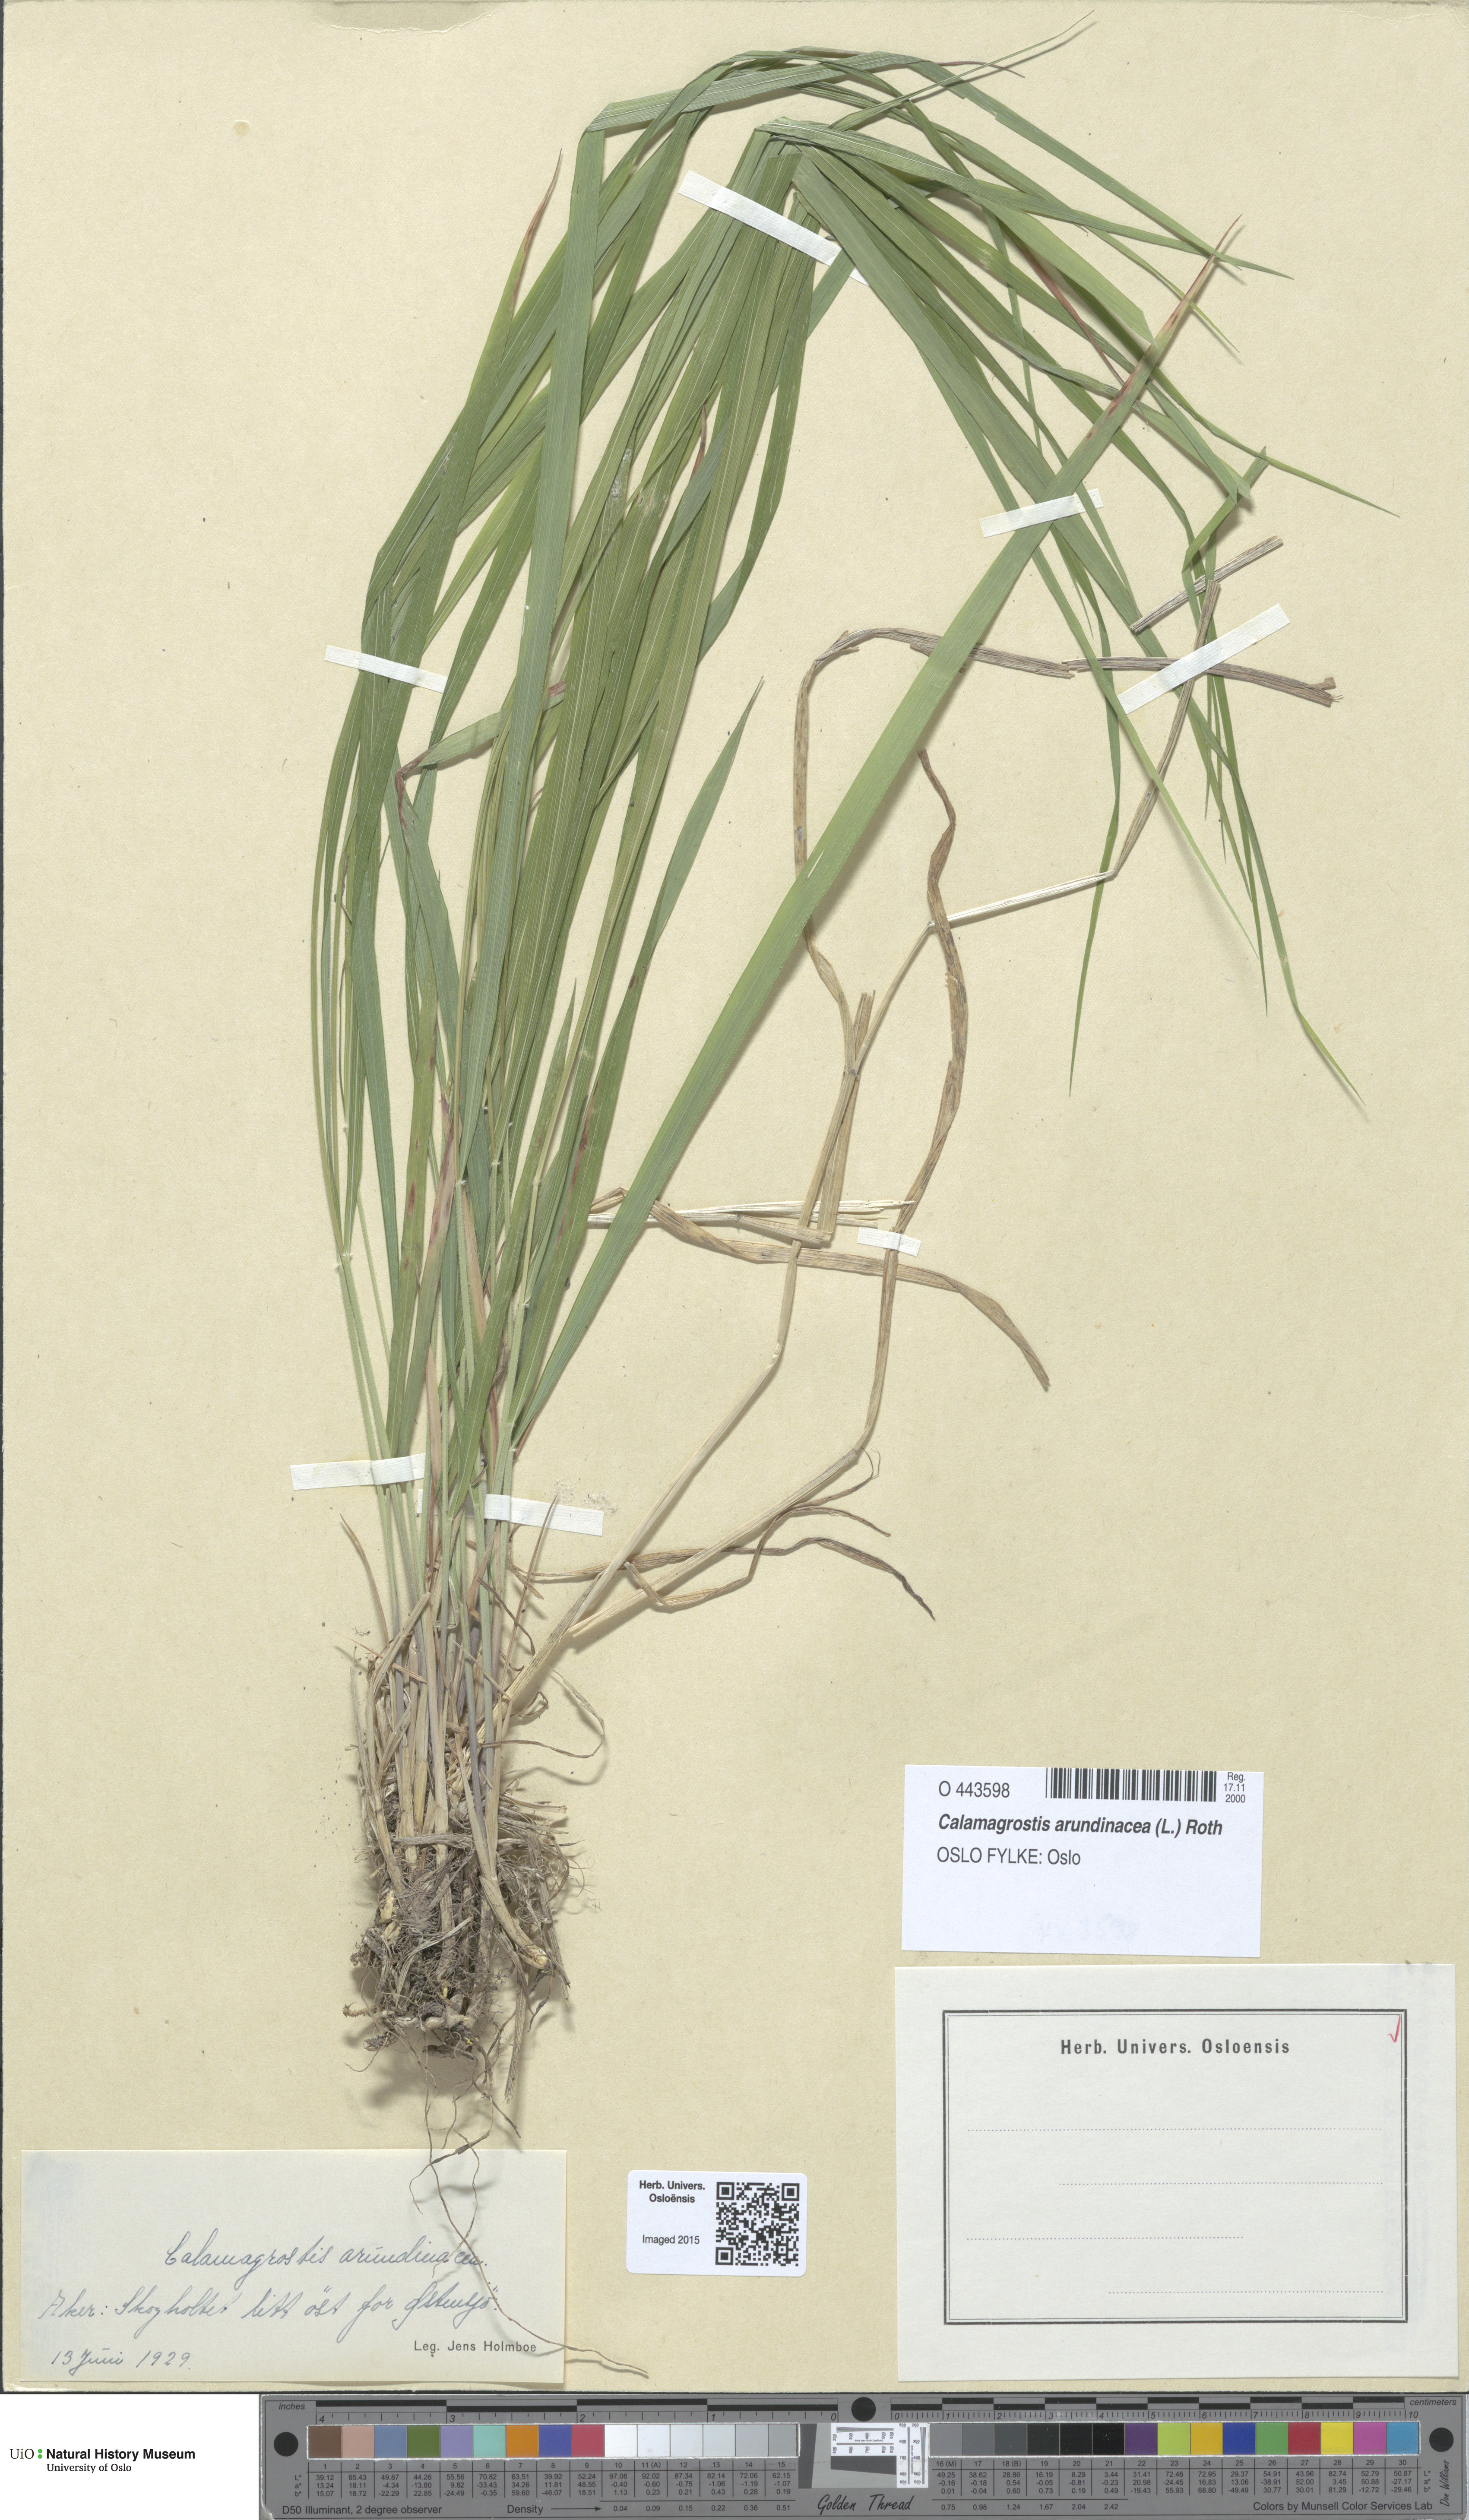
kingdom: Plantae
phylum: Tracheophyta
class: Liliopsida
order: Poales
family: Poaceae
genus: Calamagrostis
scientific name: Calamagrostis arundinacea
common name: Metskastik
